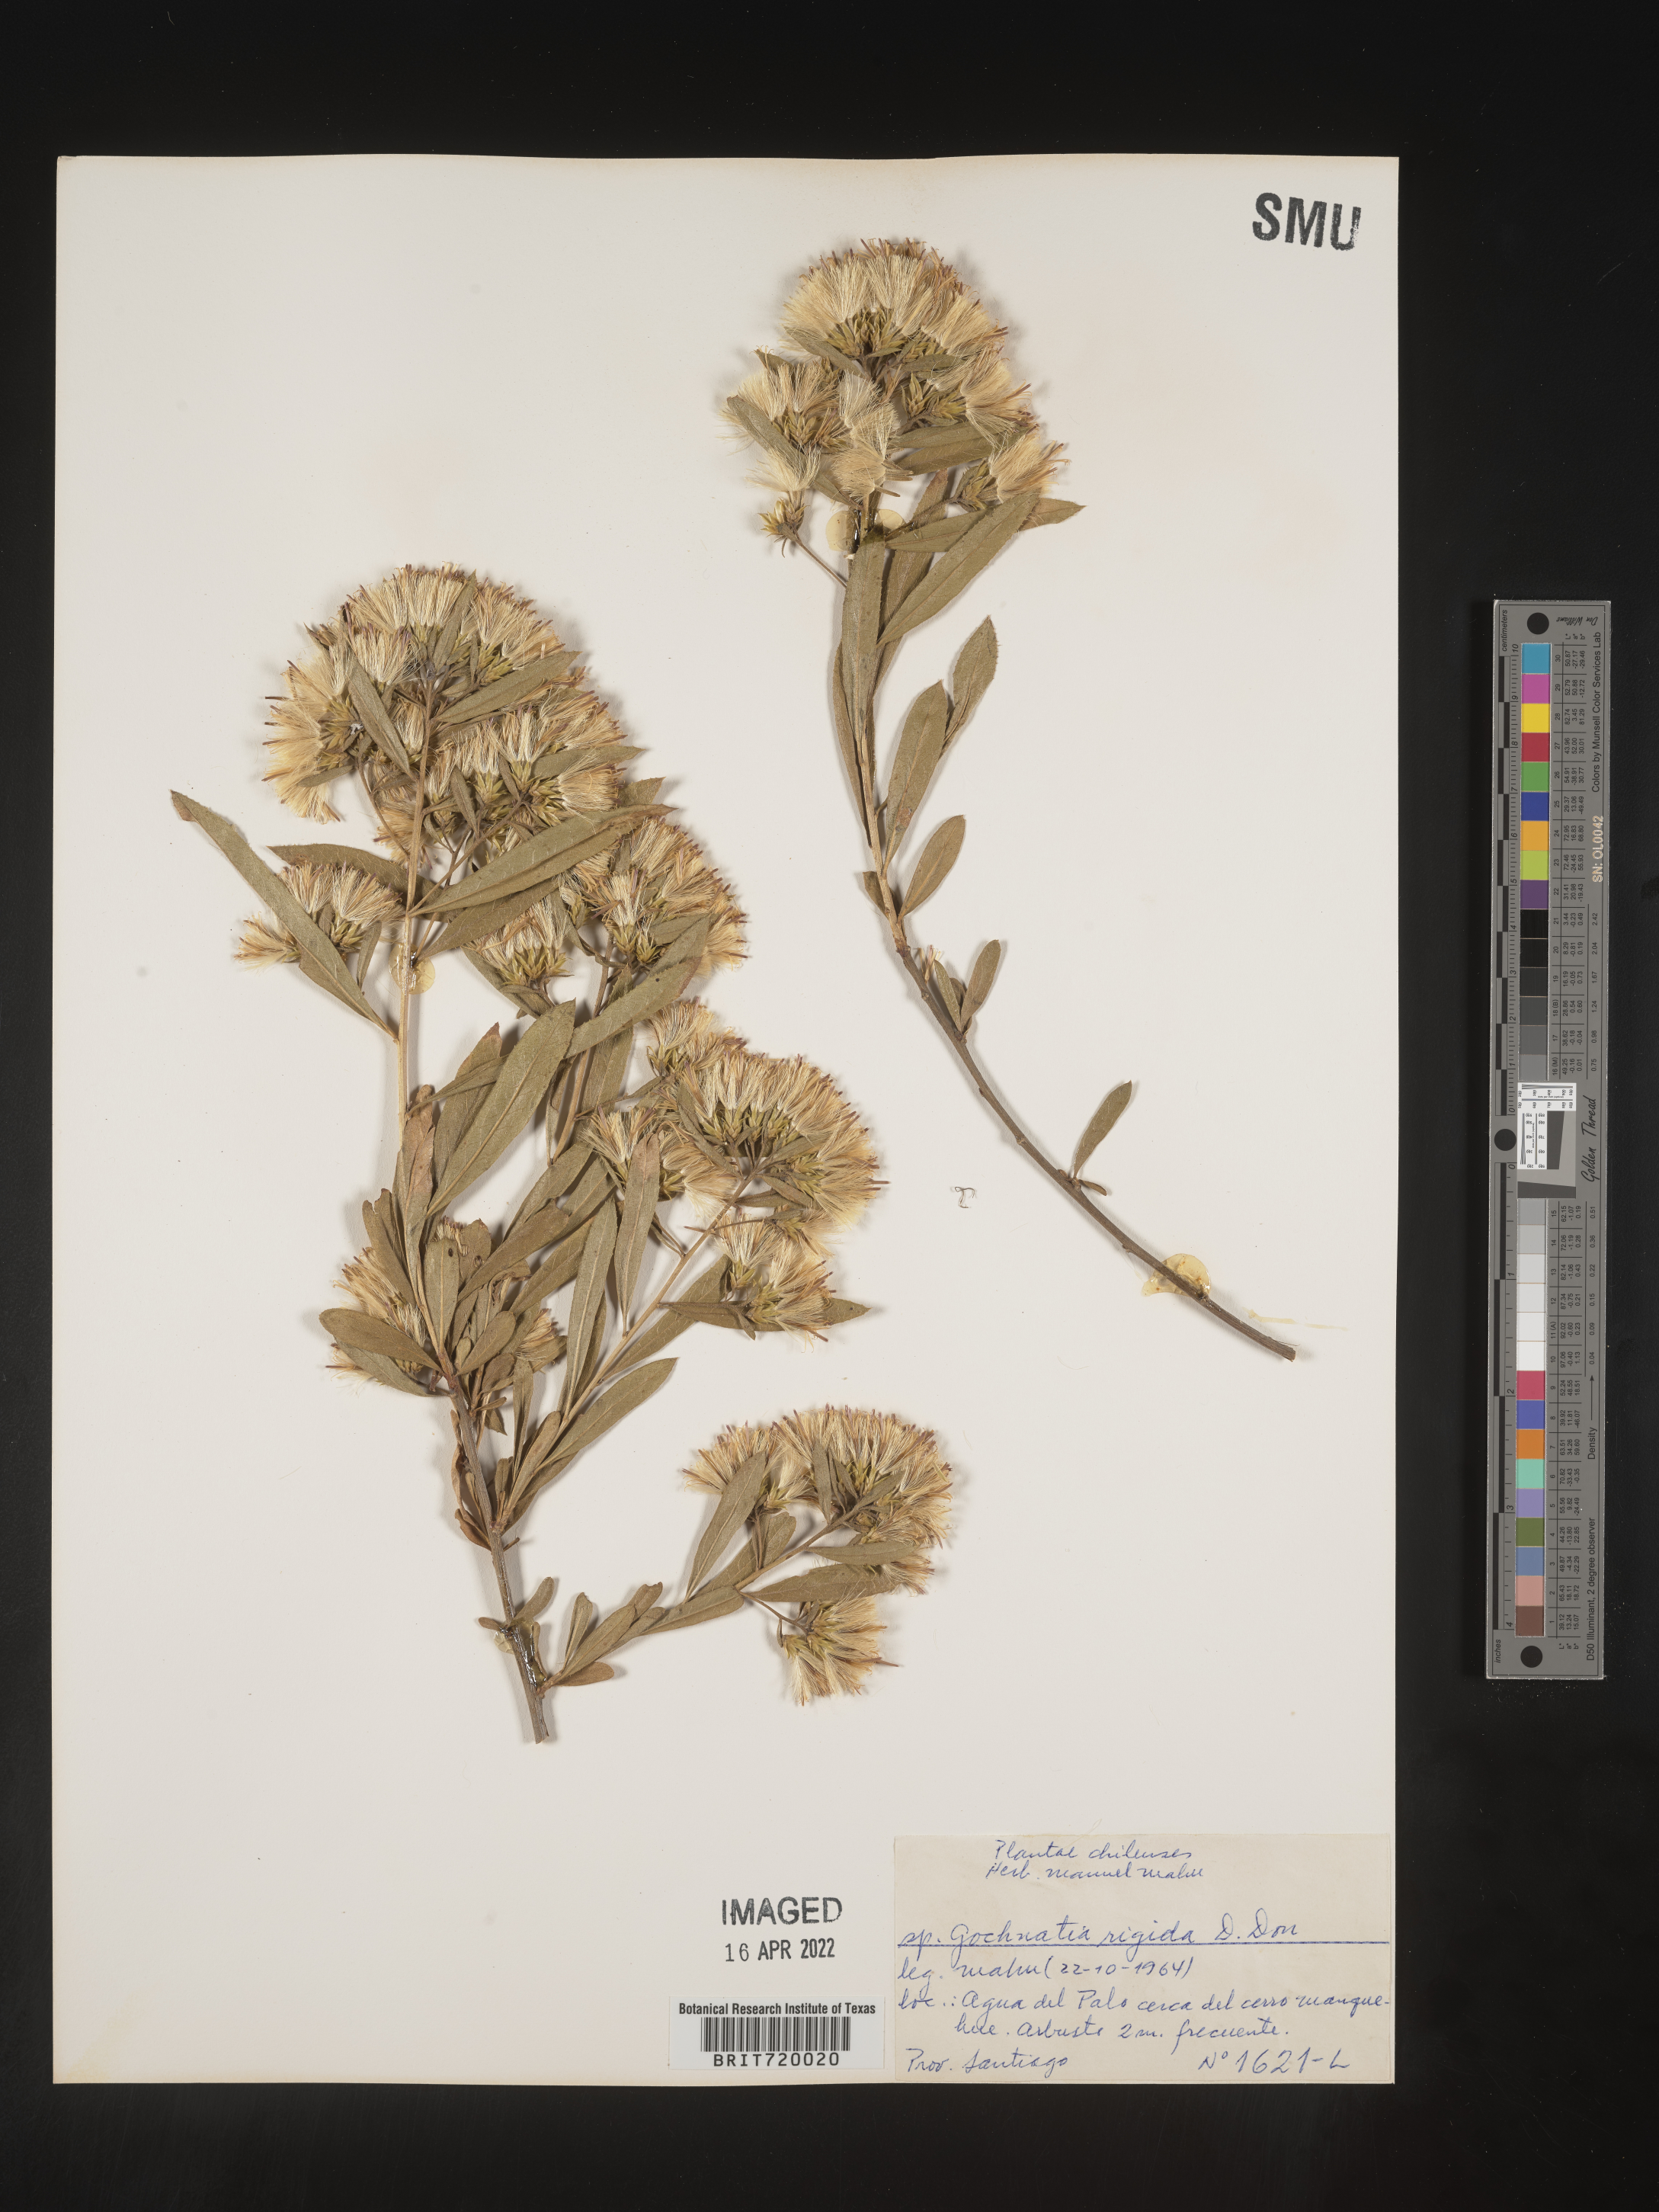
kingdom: Plantae
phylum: Tracheophyta
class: Magnoliopsida
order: Asterales
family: Asteraceae
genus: Gochnatia
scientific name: Gochnatia
